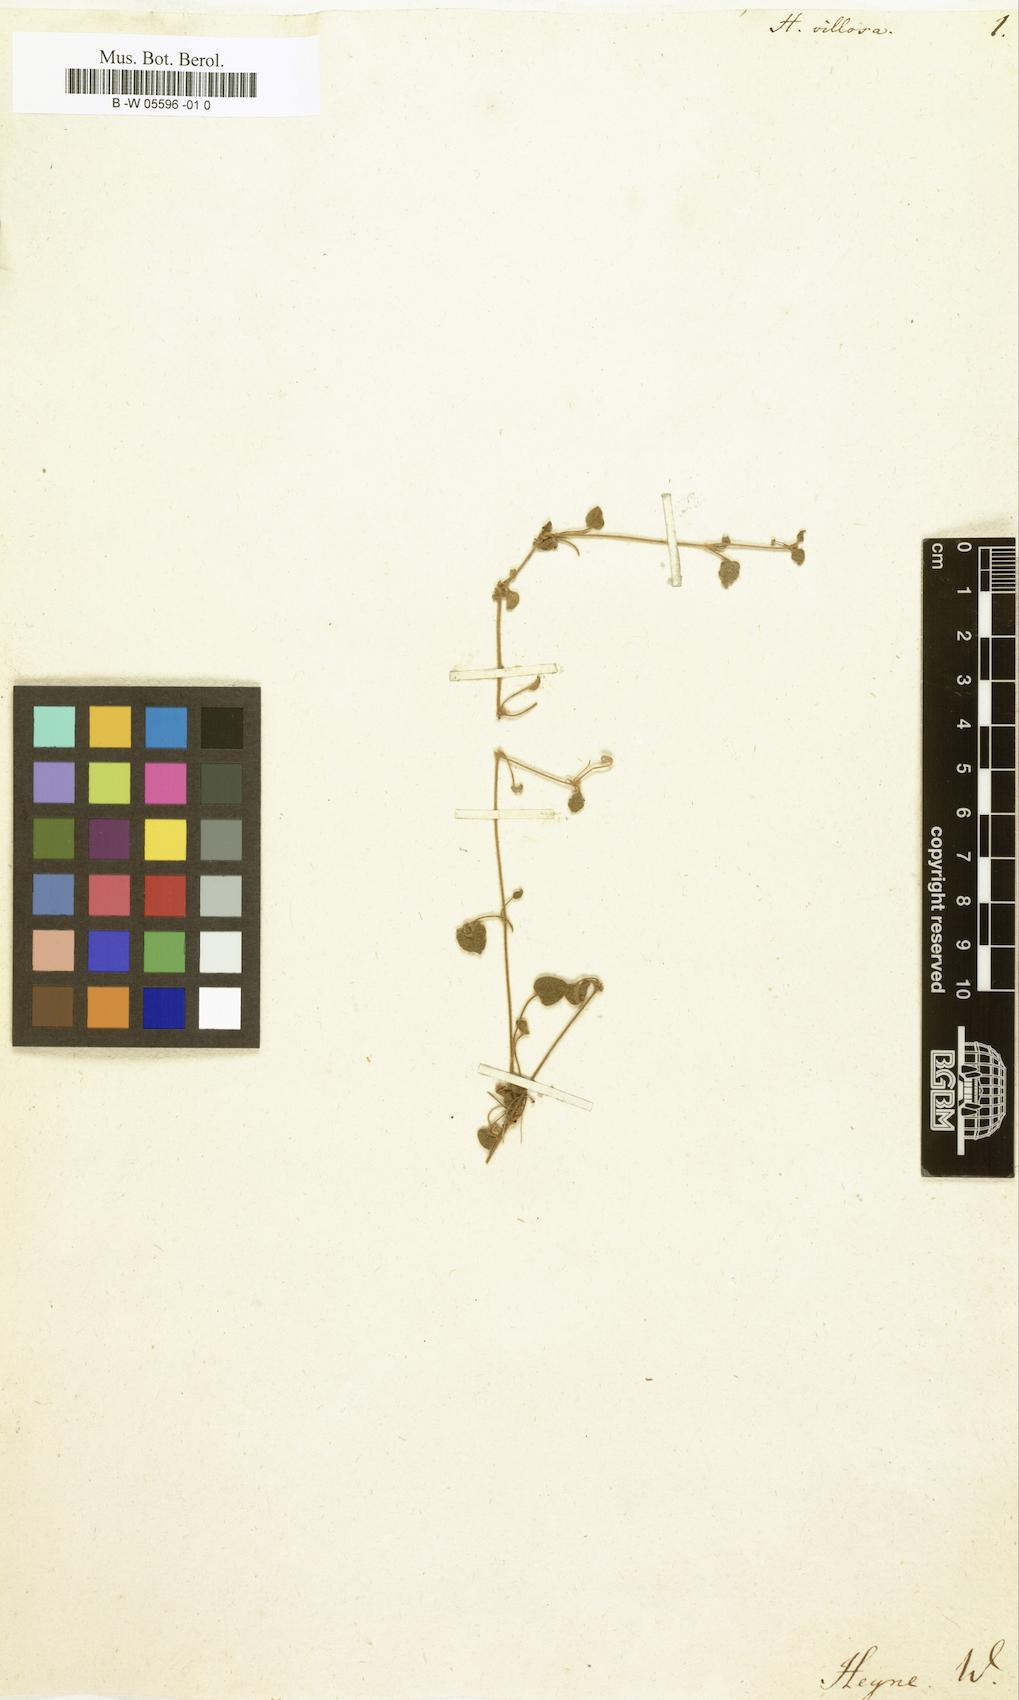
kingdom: Plantae
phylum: Tracheophyta
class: Magnoliopsida
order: Apiales
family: Apiaceae
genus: Centella
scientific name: Centella
